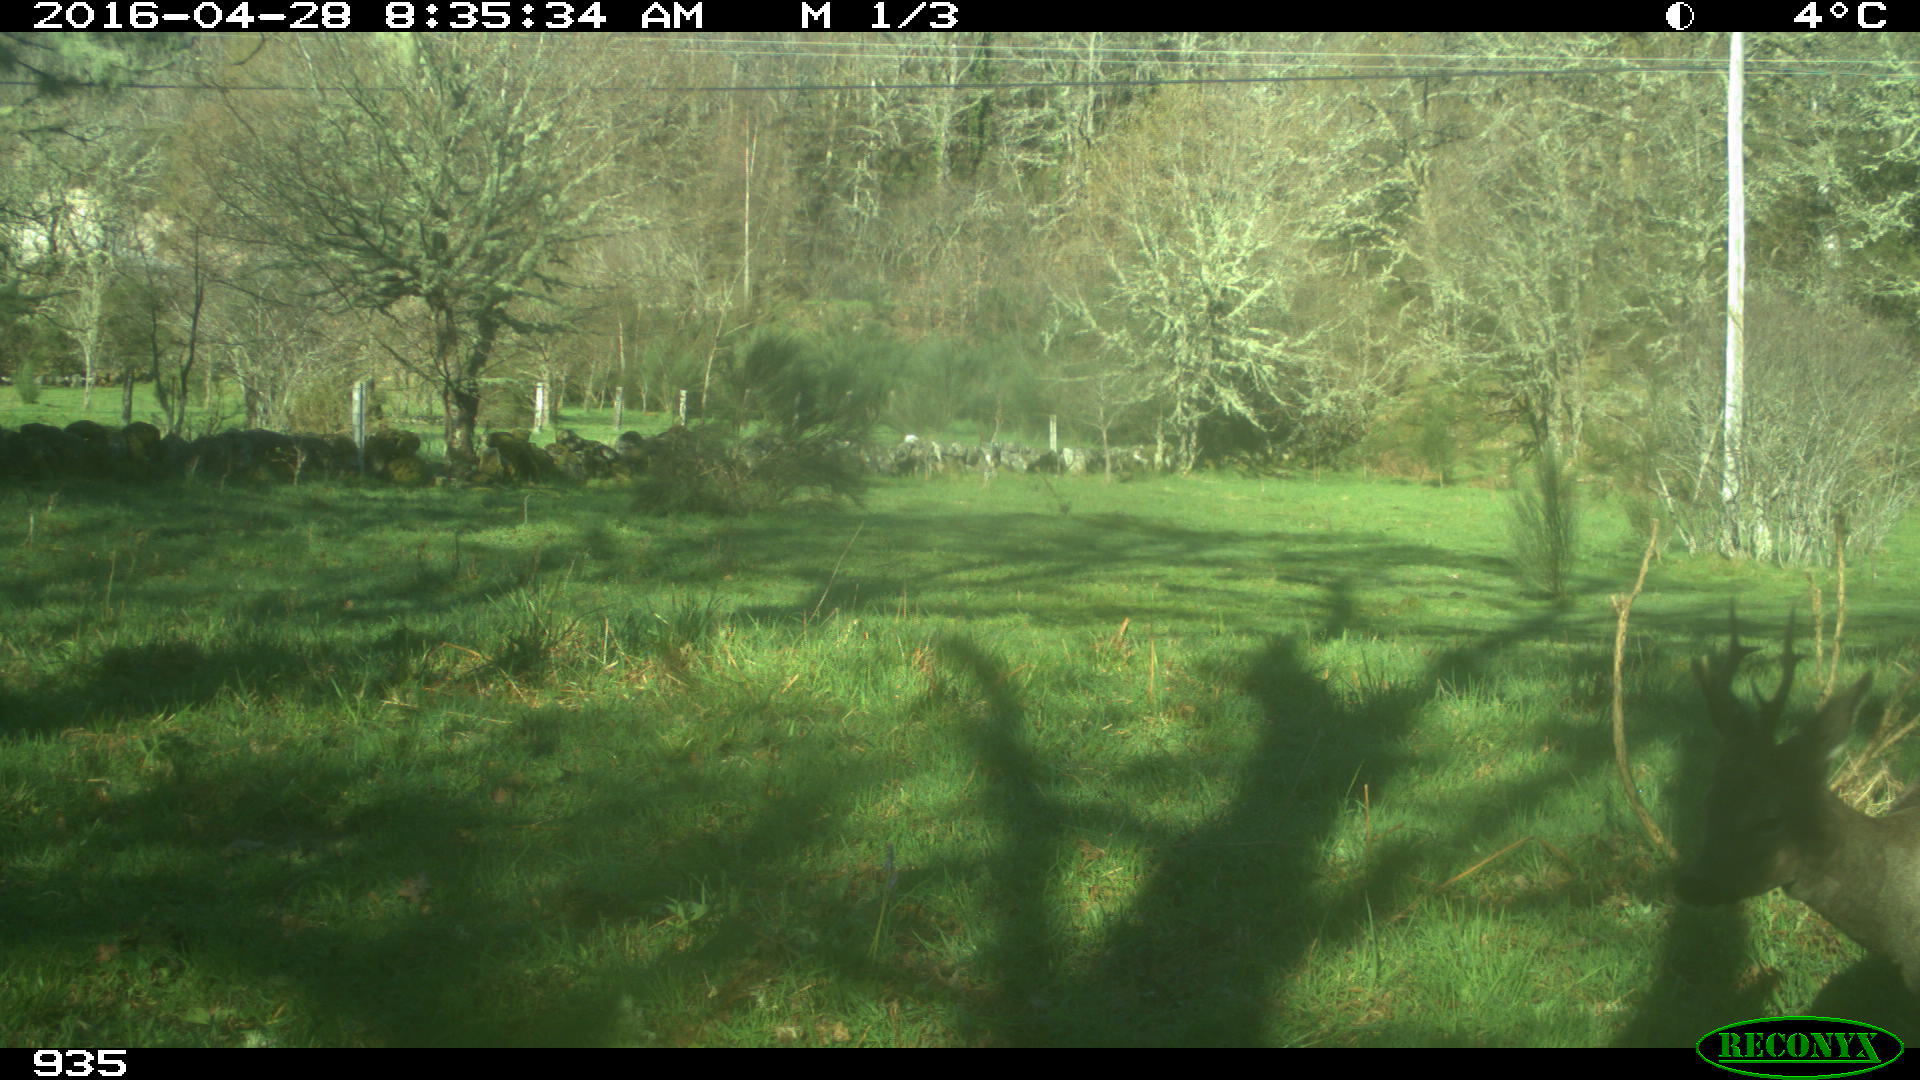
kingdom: Animalia
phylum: Chordata
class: Mammalia
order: Artiodactyla
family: Cervidae
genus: Capreolus
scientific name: Capreolus capreolus
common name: Western roe deer
